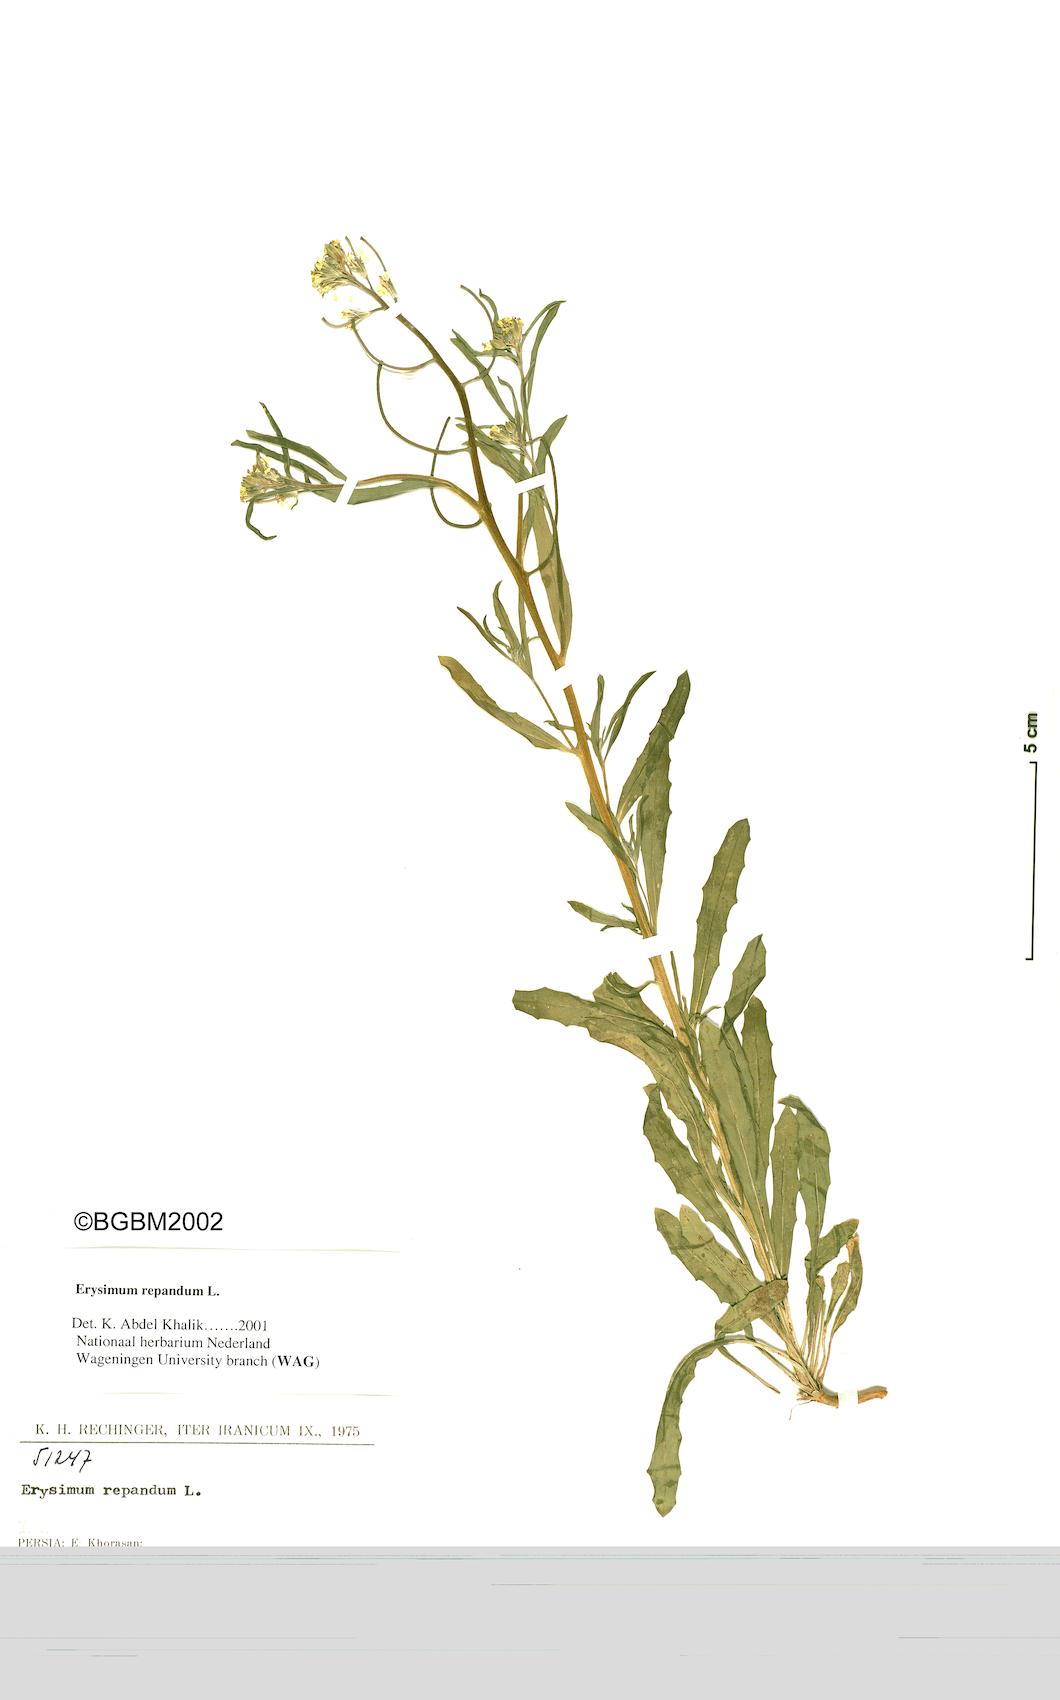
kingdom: Plantae
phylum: Tracheophyta
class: Magnoliopsida
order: Brassicales
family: Brassicaceae
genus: Erysimum
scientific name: Erysimum repandum
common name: Spreading wallflower
